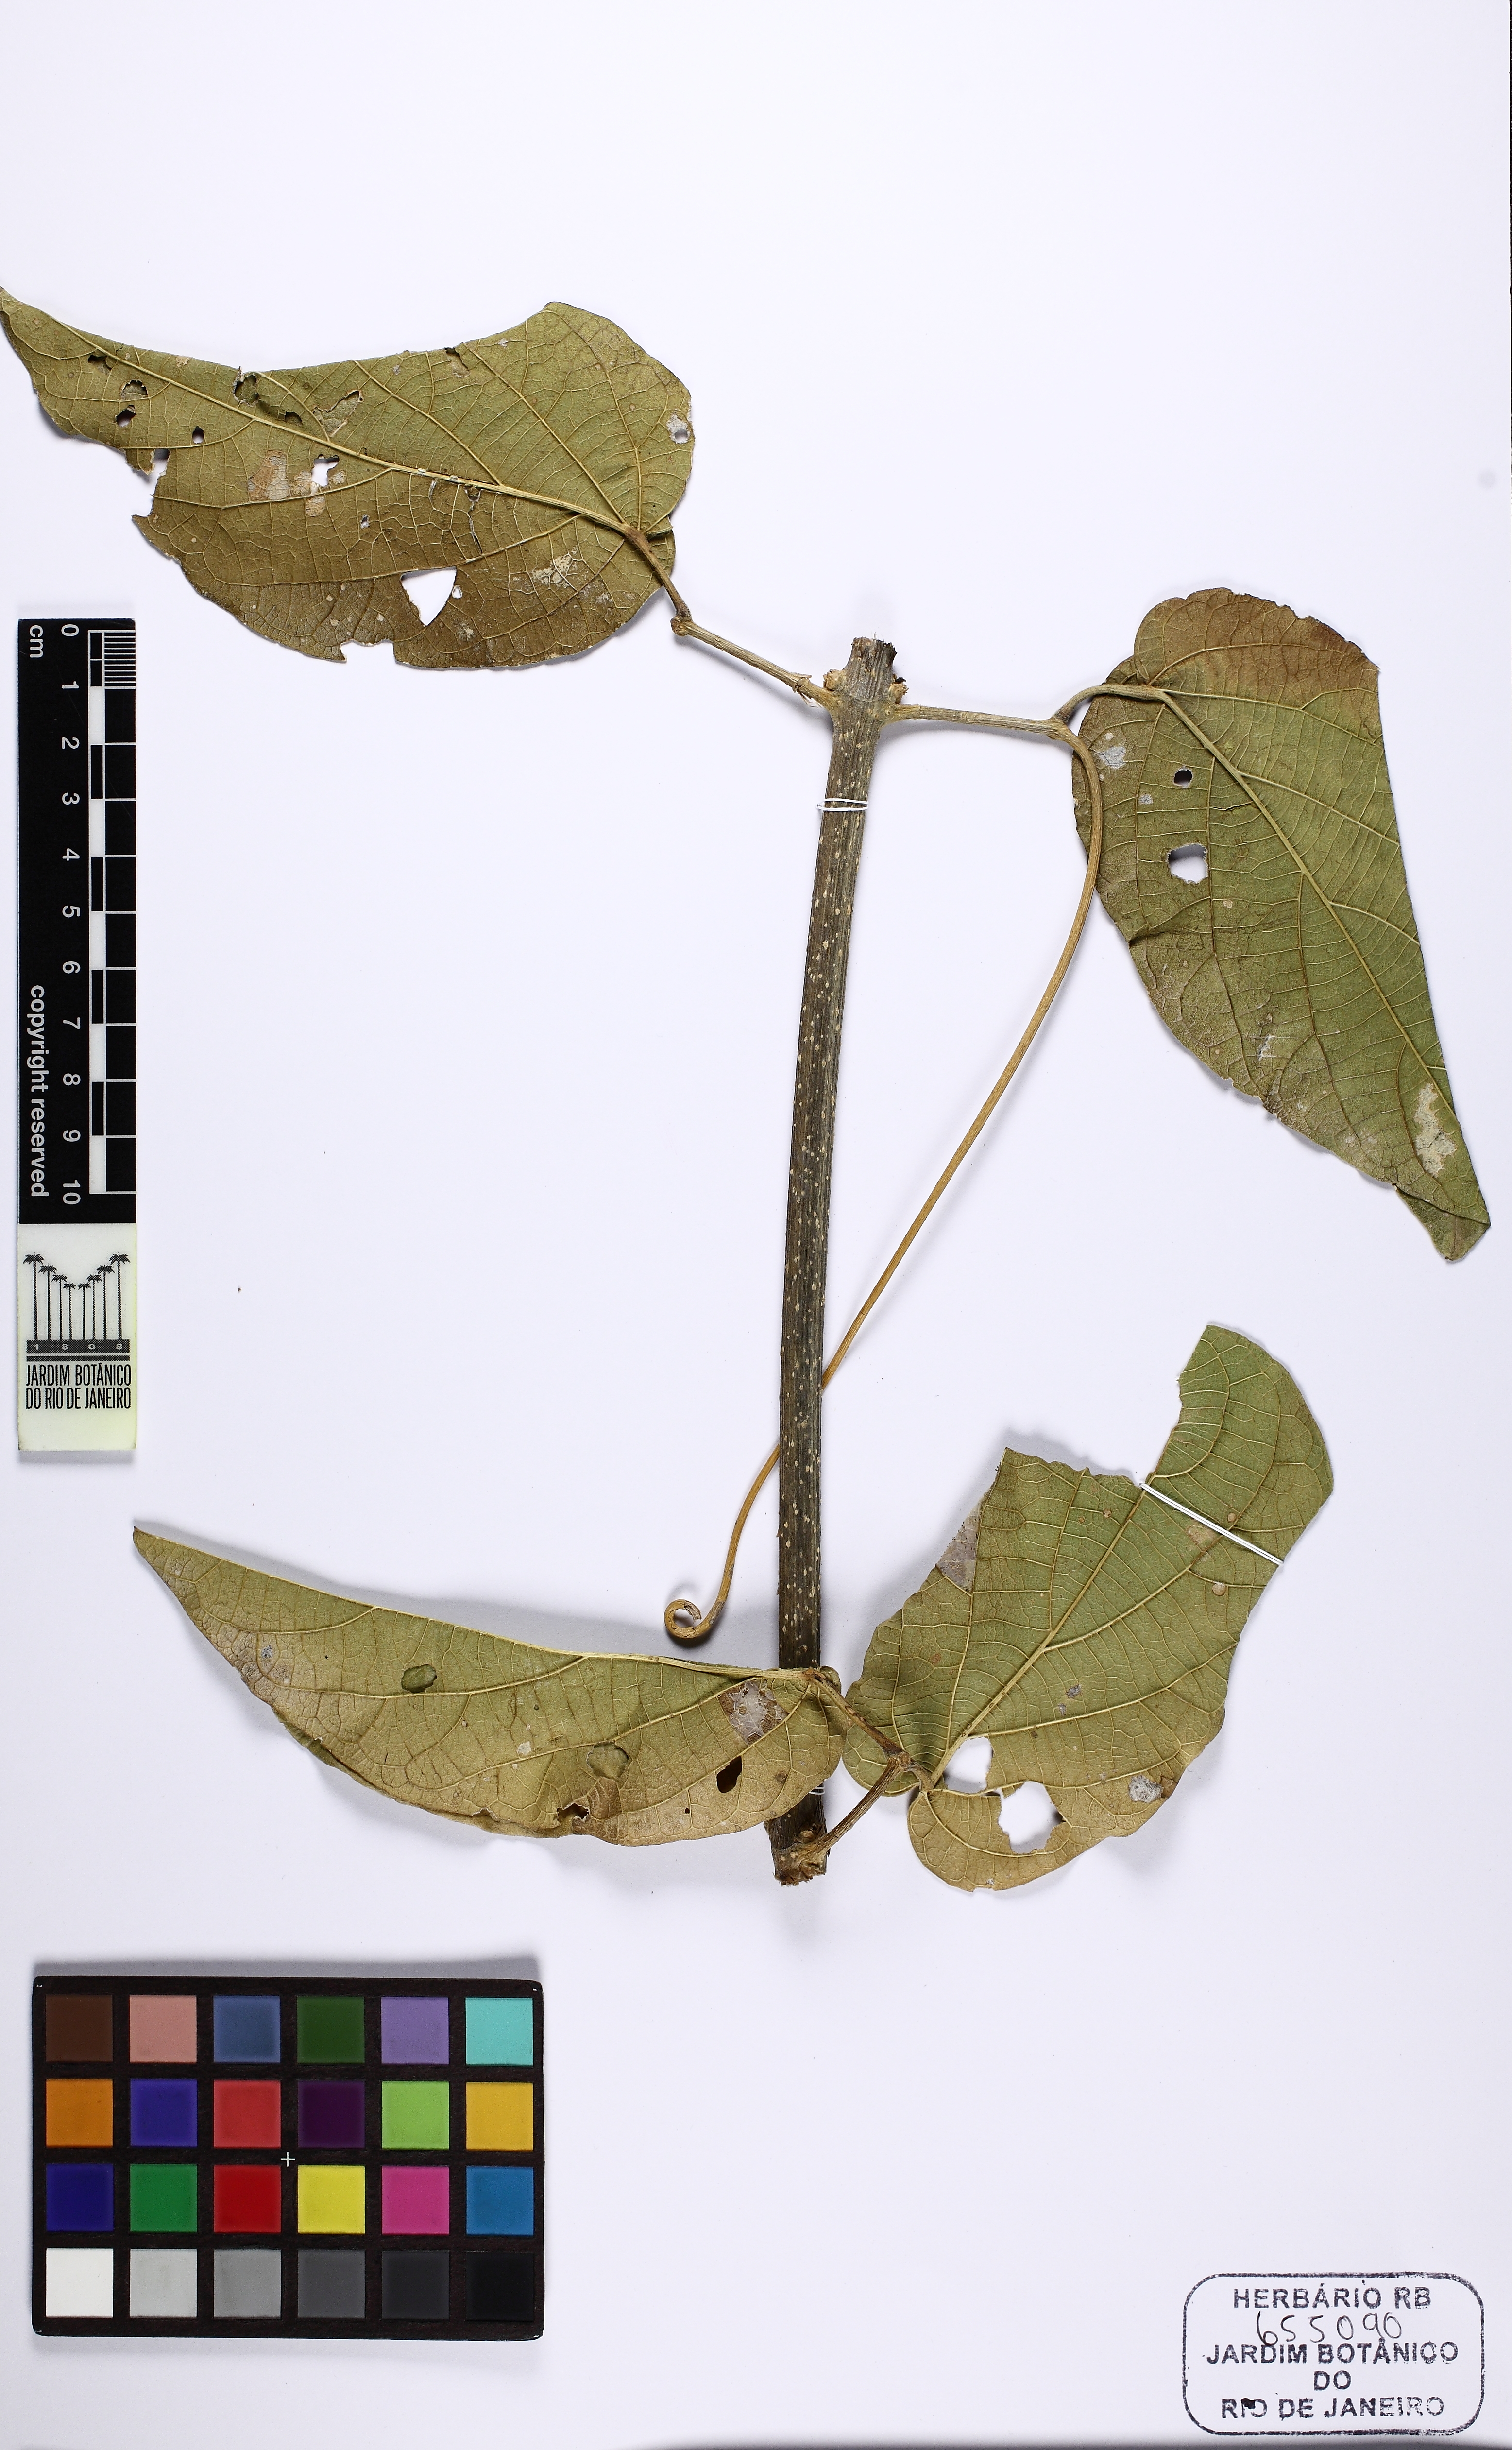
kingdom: Plantae
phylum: Tracheophyta
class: Magnoliopsida
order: Lamiales
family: Bignoniaceae
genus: Tanaecium
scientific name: Tanaecium dichotomum
